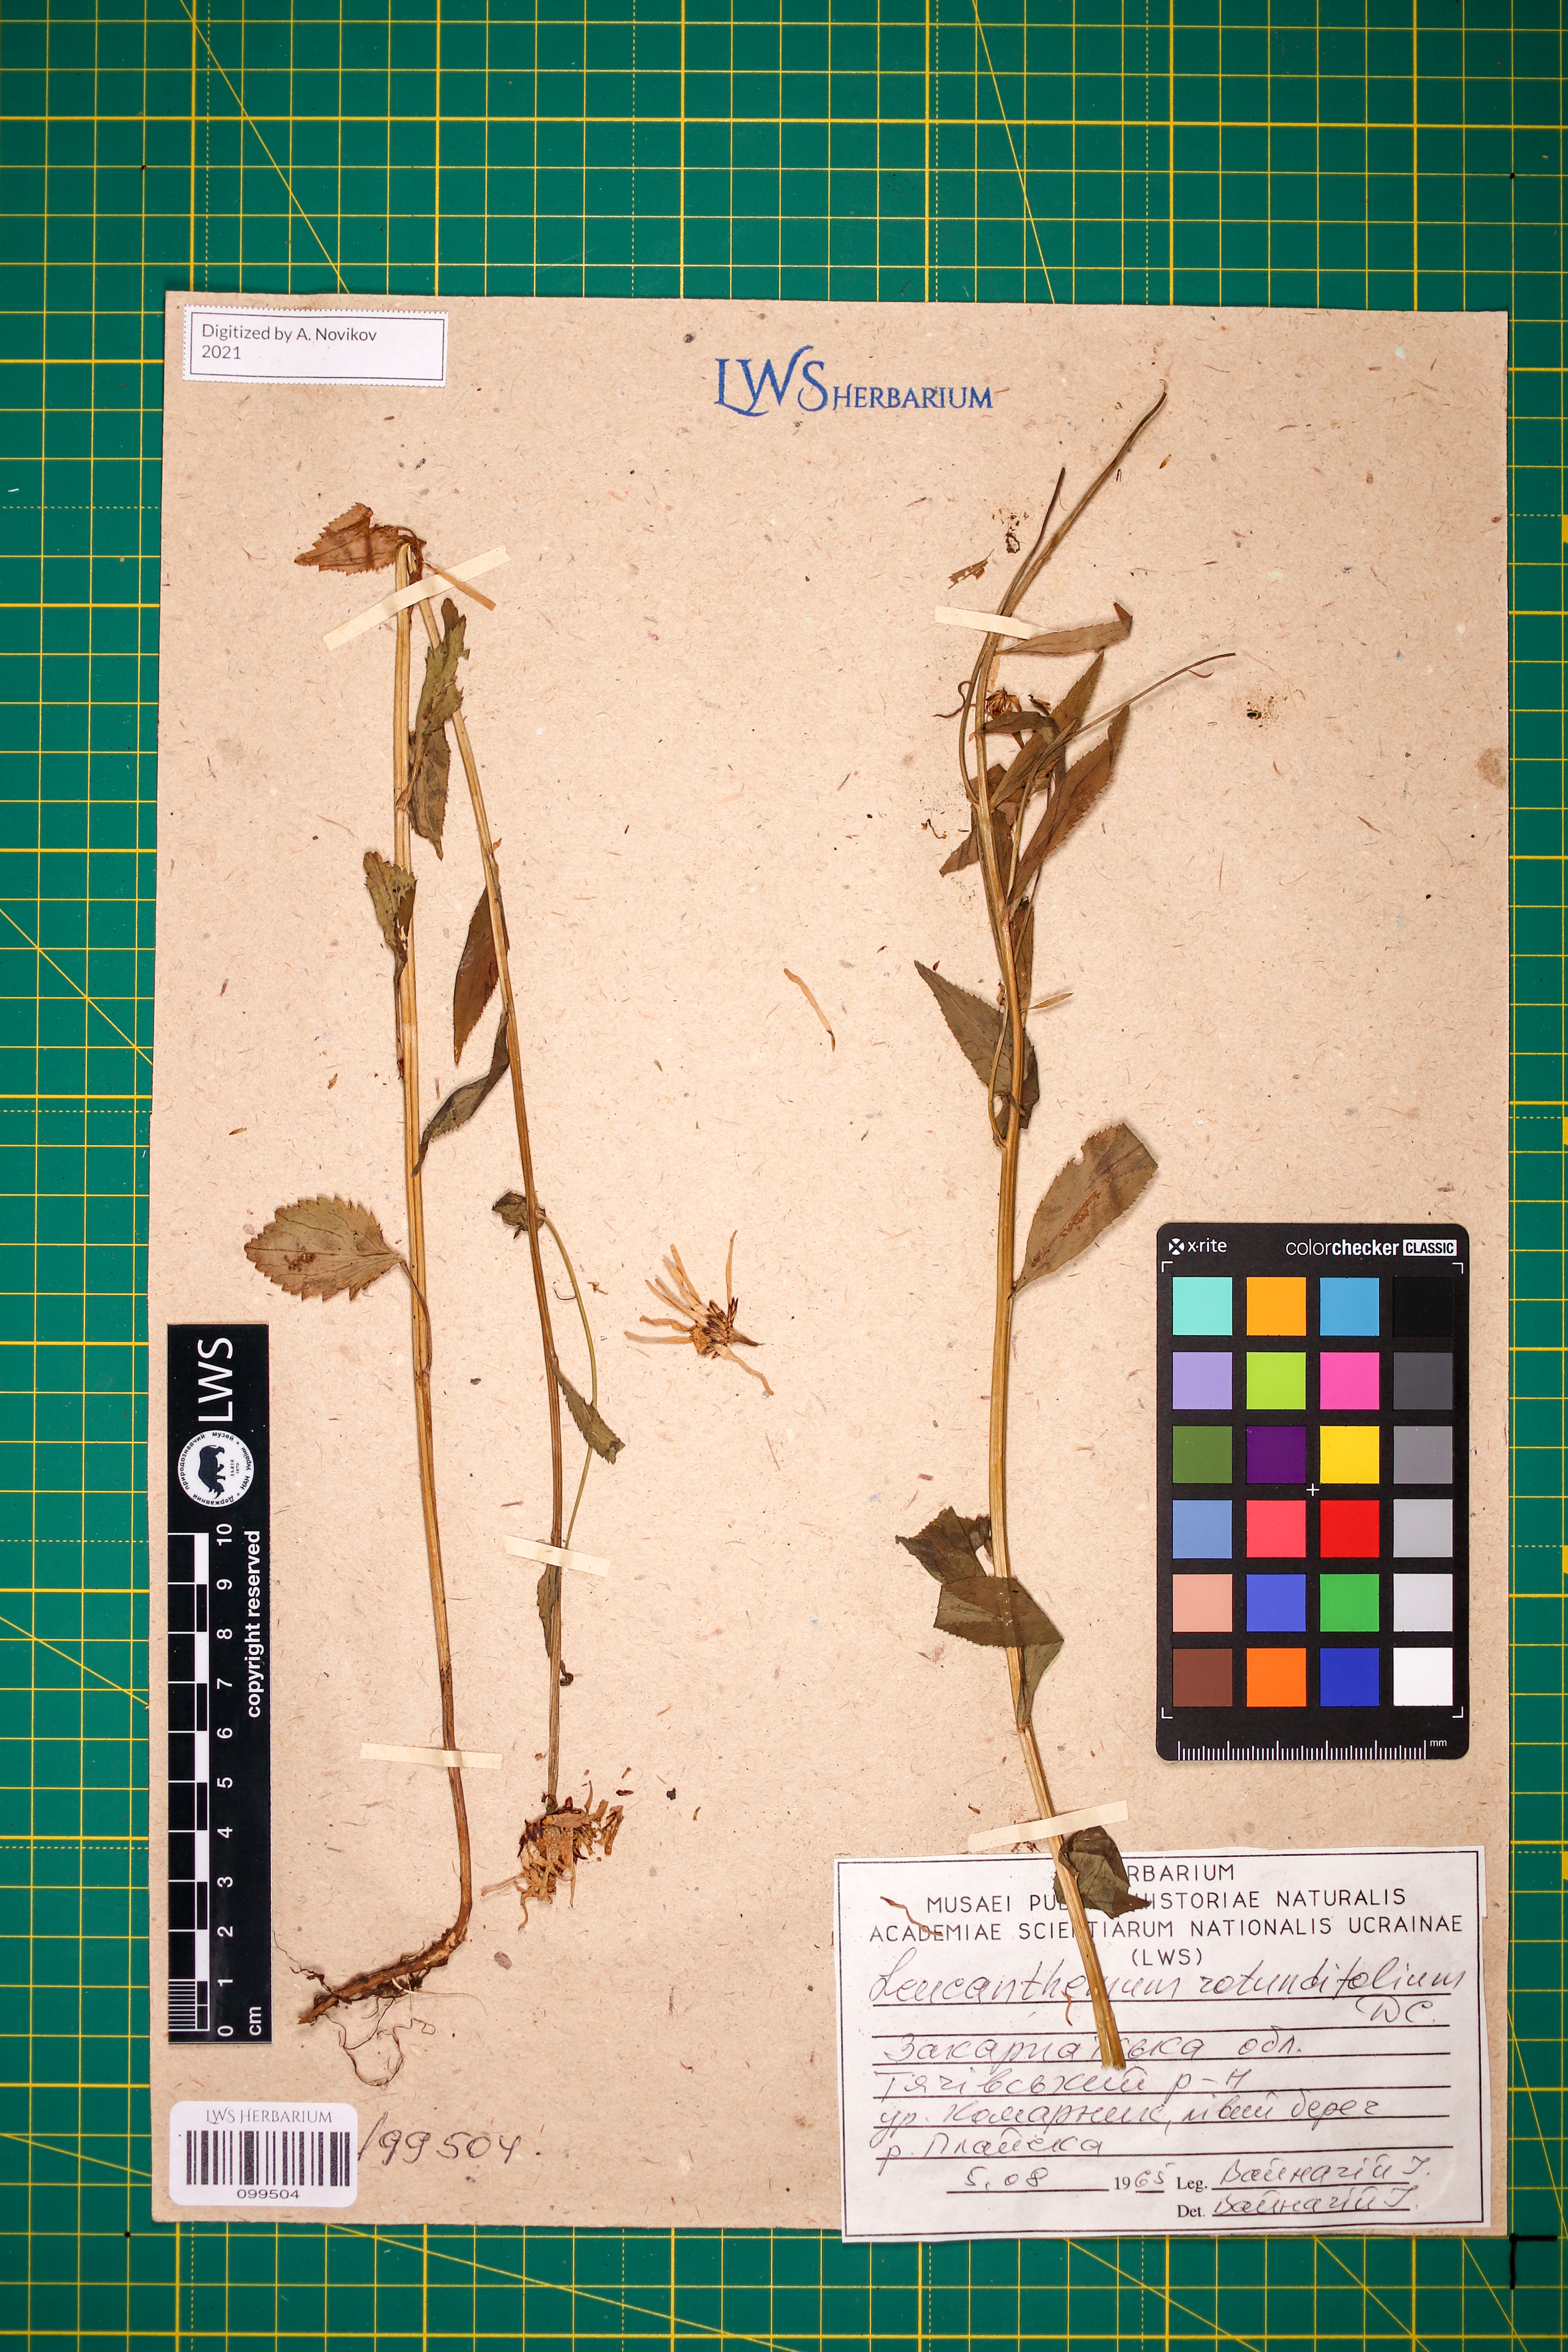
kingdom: Plantae
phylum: Tracheophyta
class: Magnoliopsida
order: Asterales
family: Asteraceae
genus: Leucanthemum
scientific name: Leucanthemum rotundifolium
